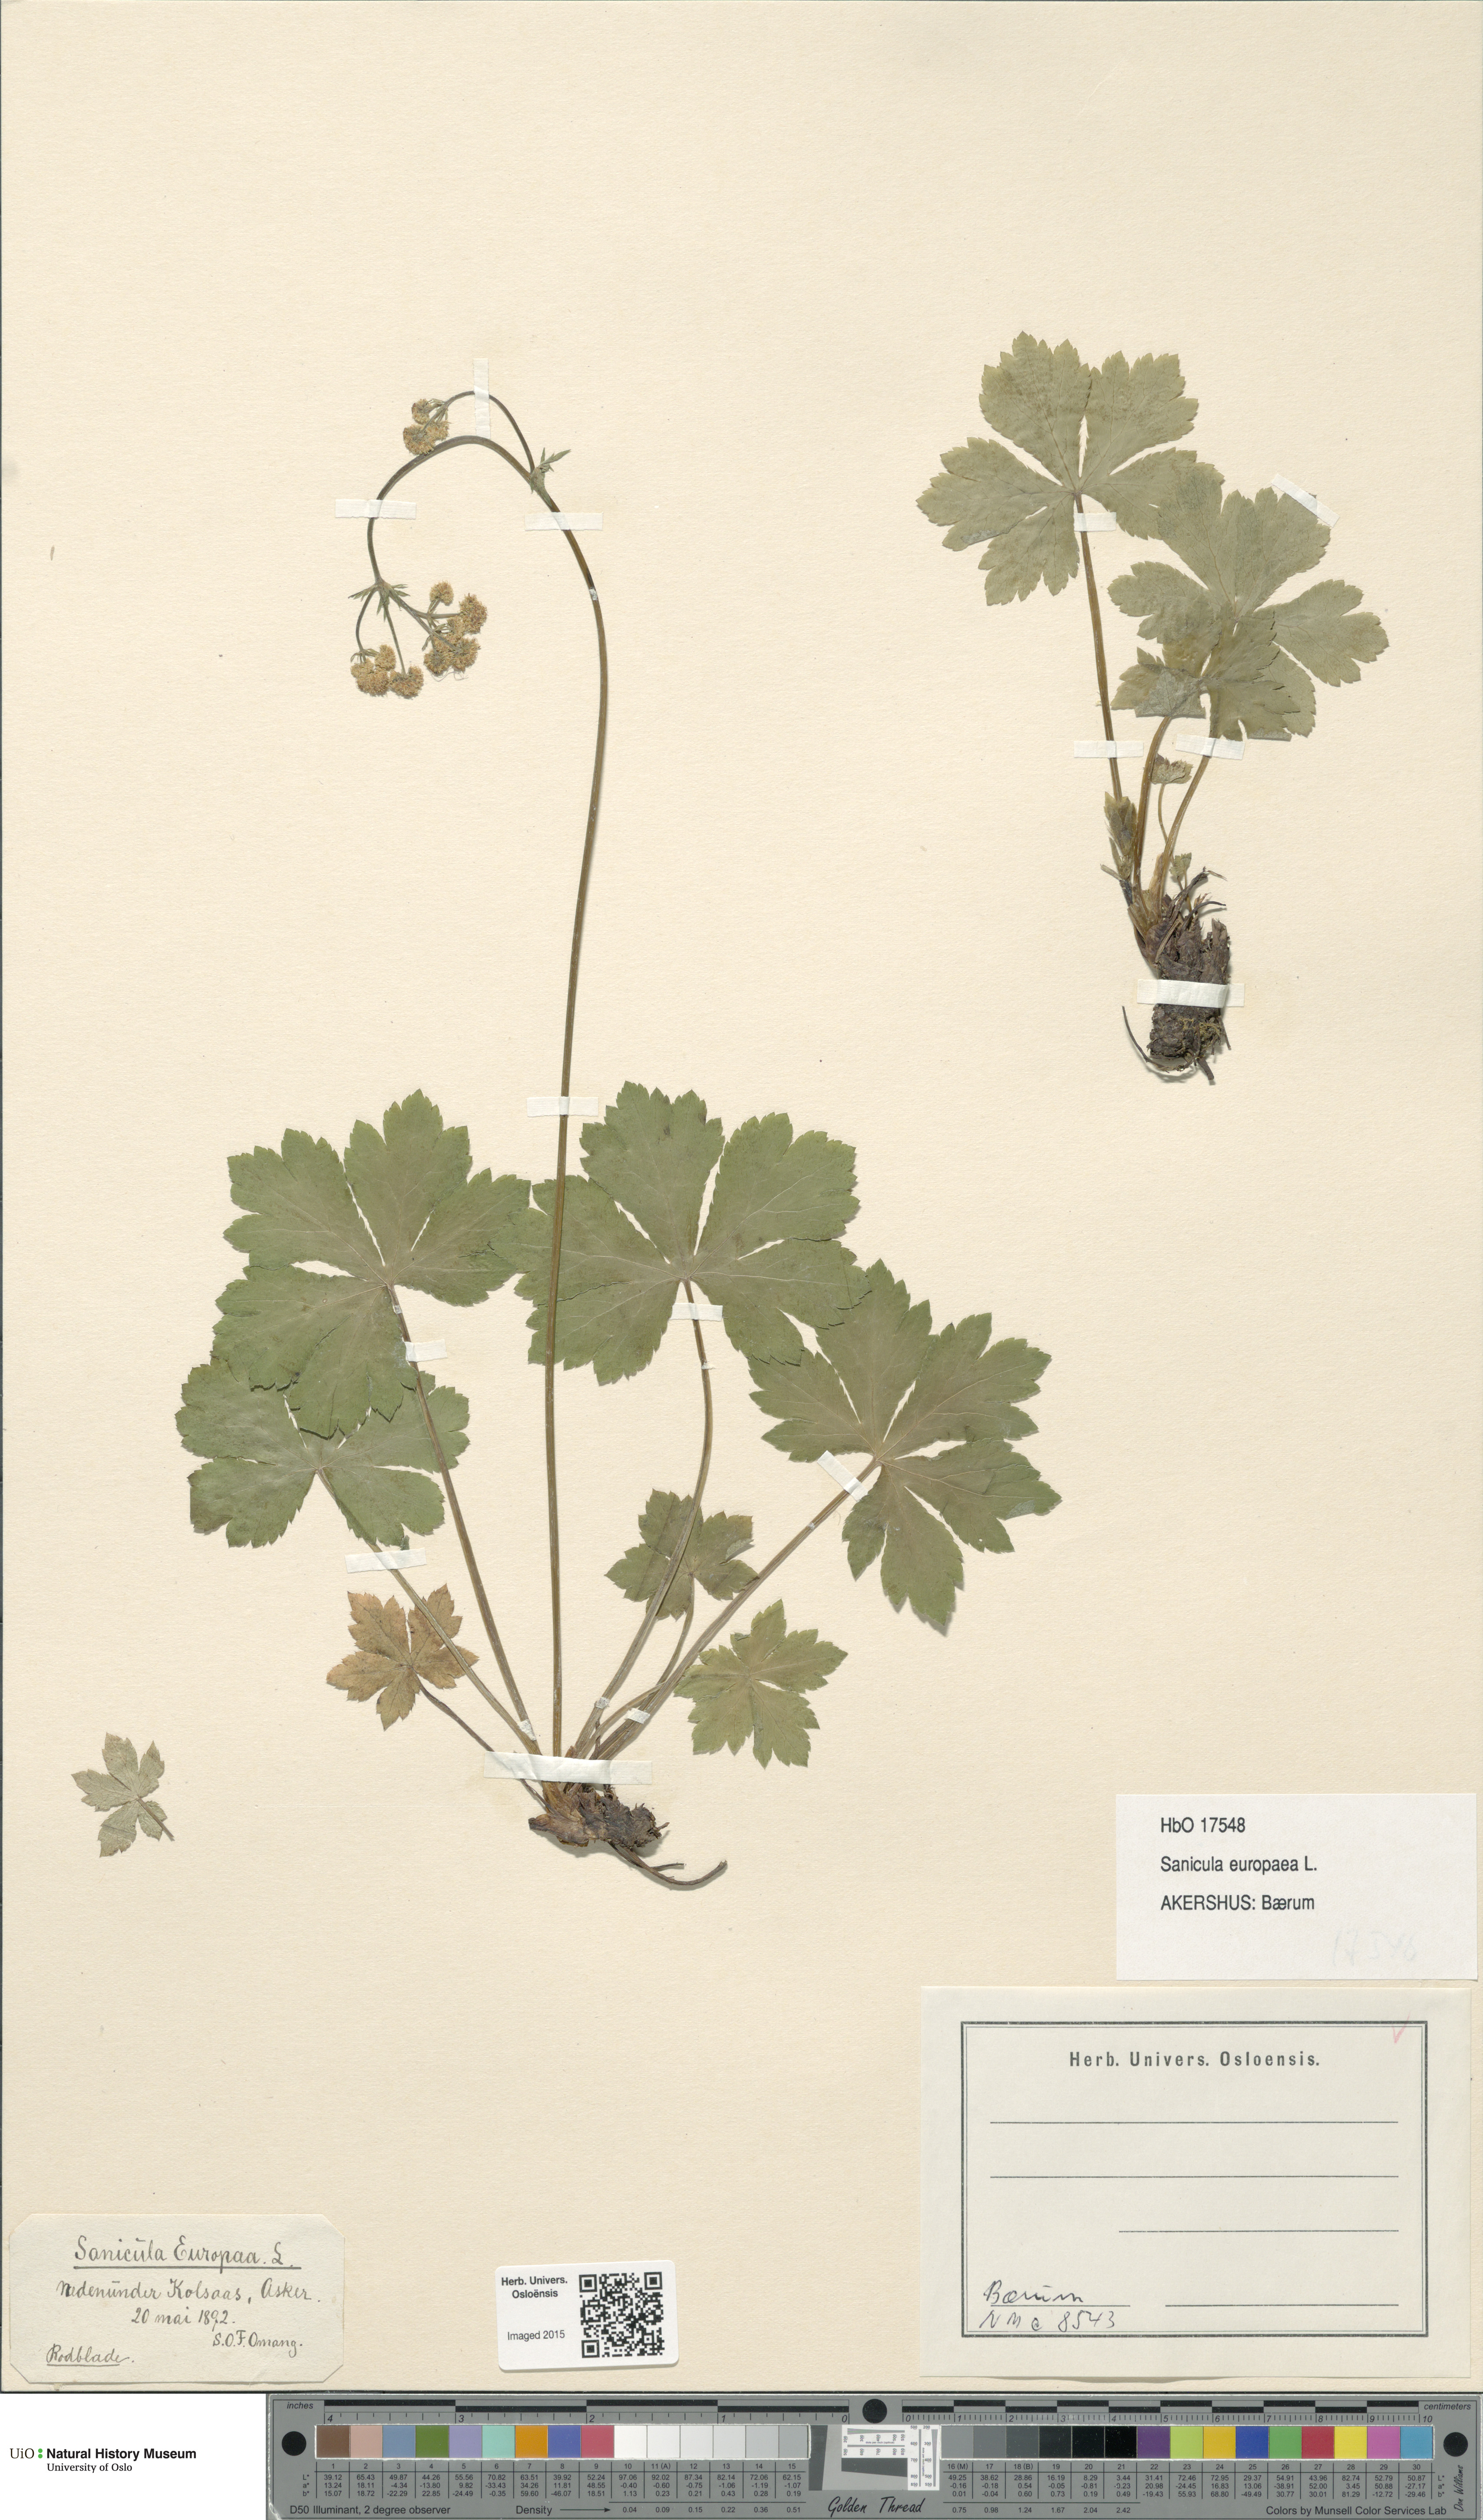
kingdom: Plantae
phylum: Tracheophyta
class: Magnoliopsida
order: Apiales
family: Apiaceae
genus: Sanicula
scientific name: Sanicula europaea
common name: Sanicle
